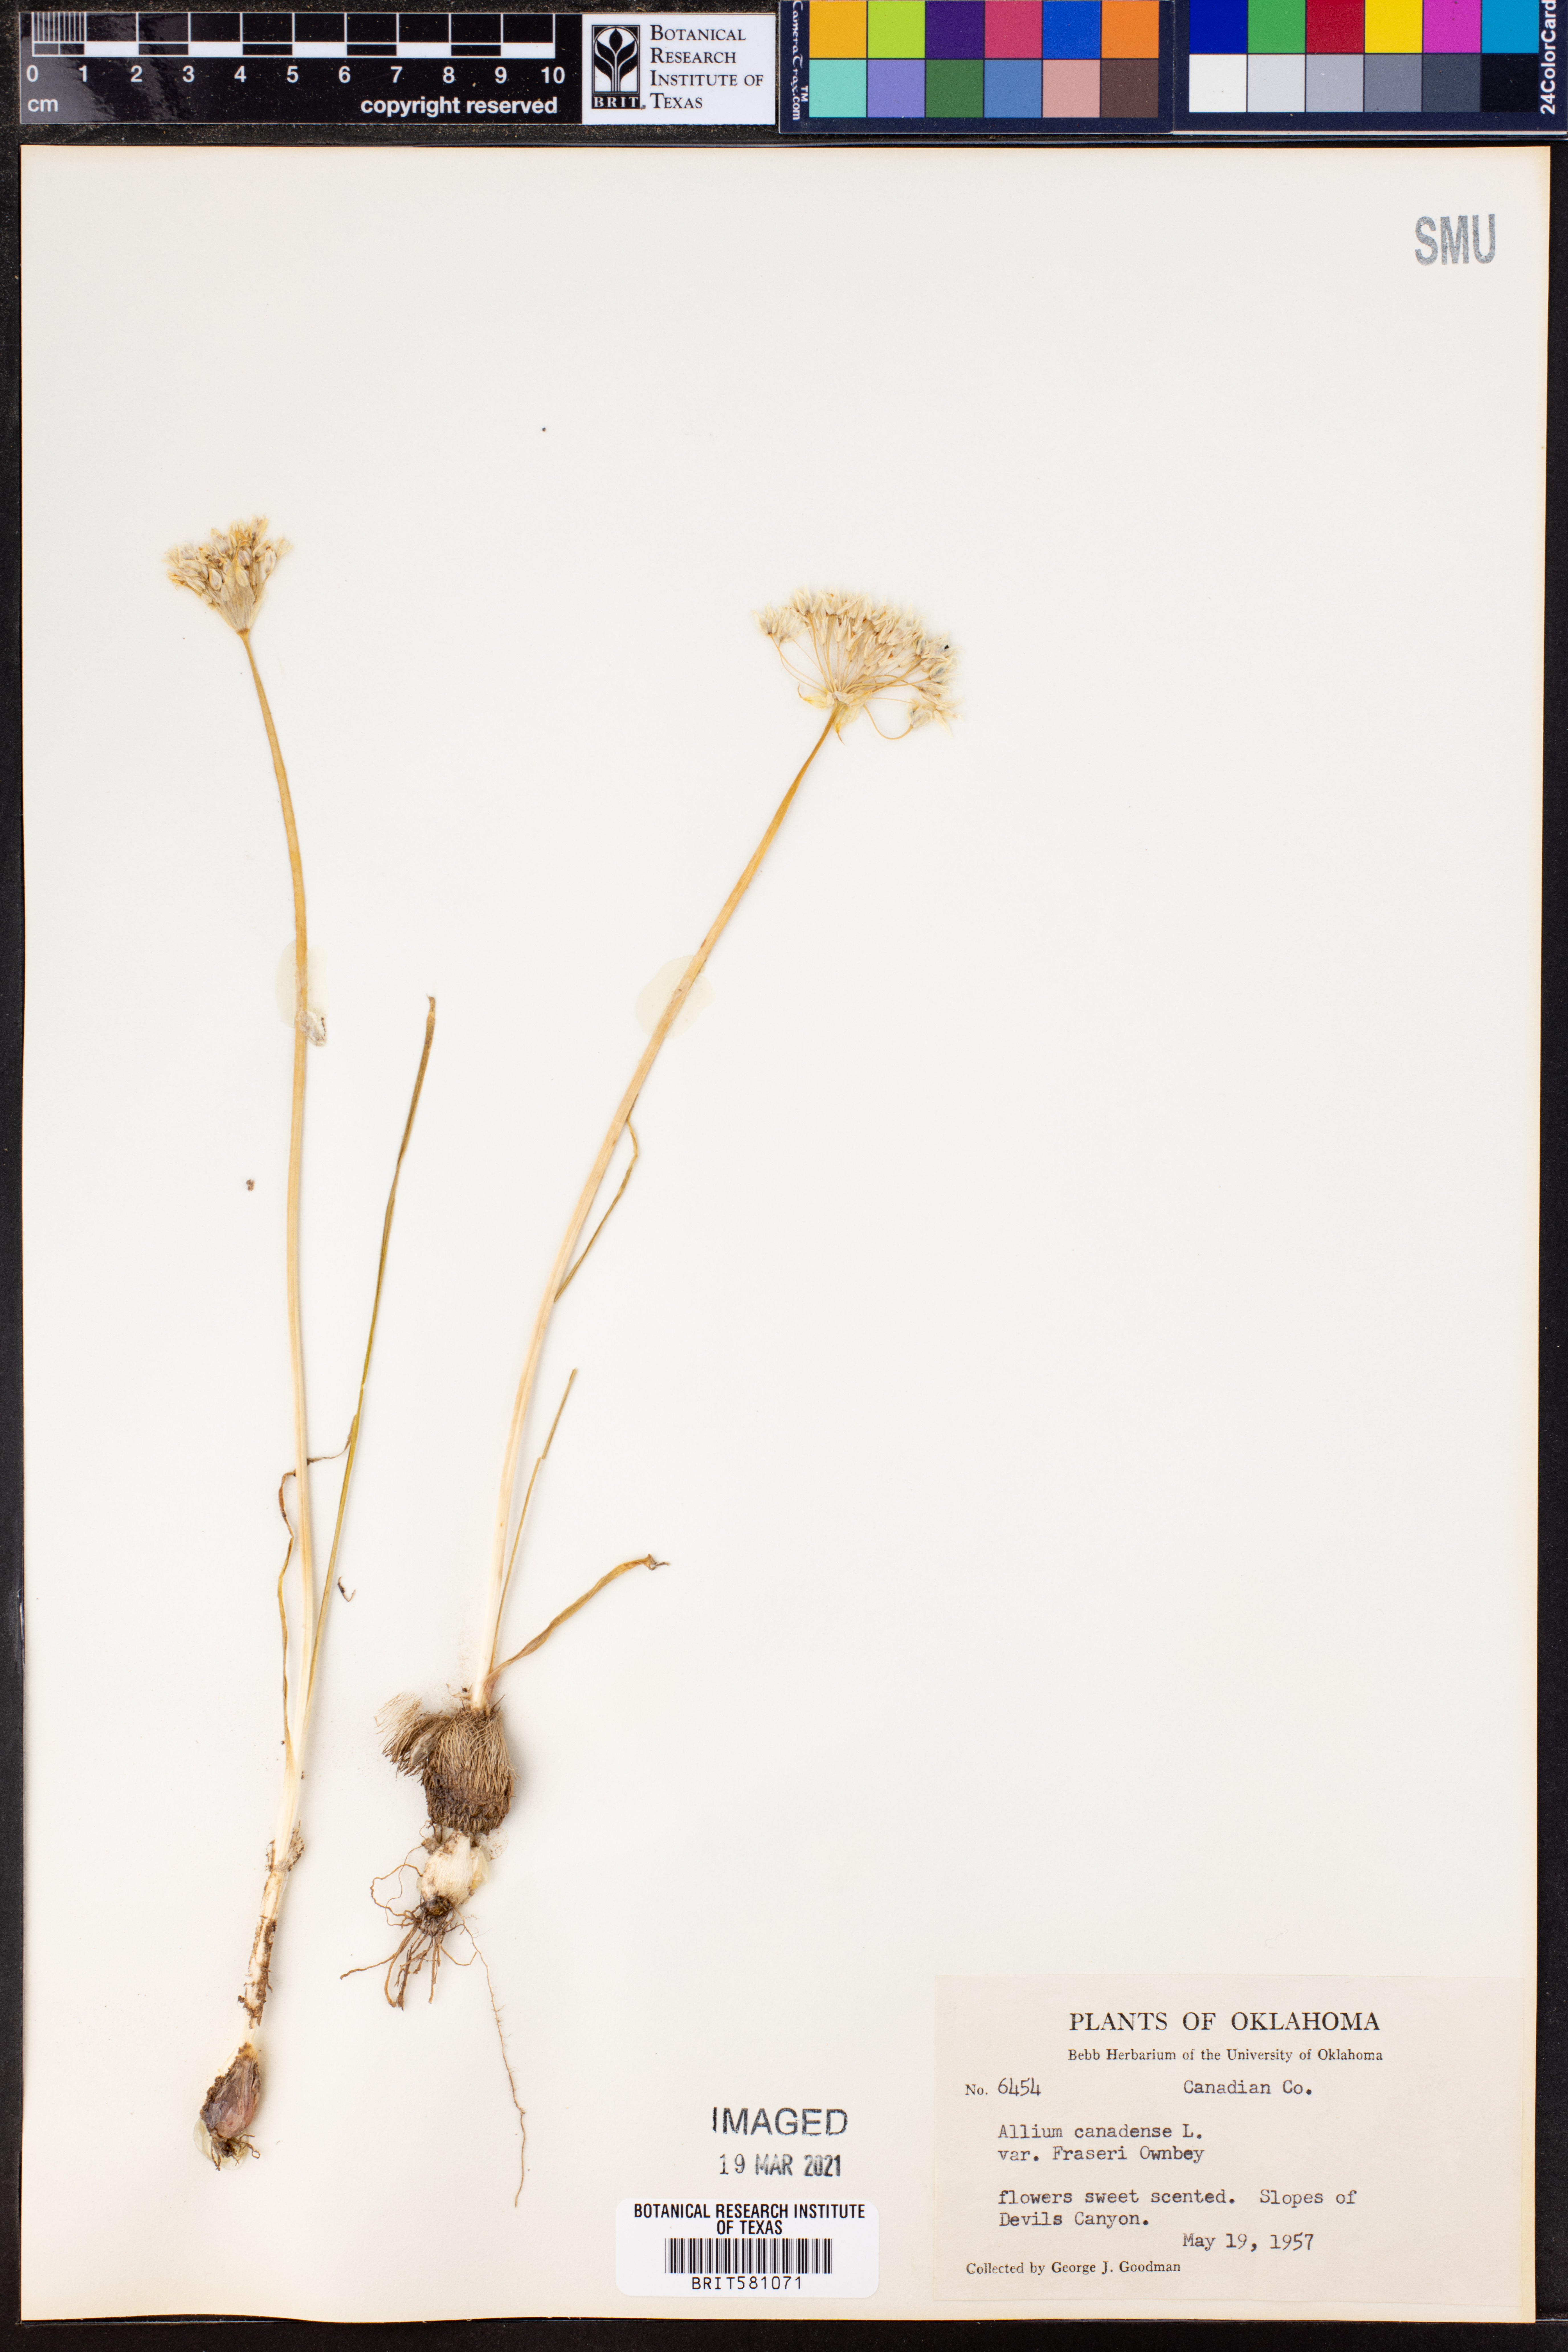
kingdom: Plantae
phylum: Tracheophyta
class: Liliopsida
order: Asparagales
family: Amaryllidaceae
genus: Allium
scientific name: Allium fraseri
